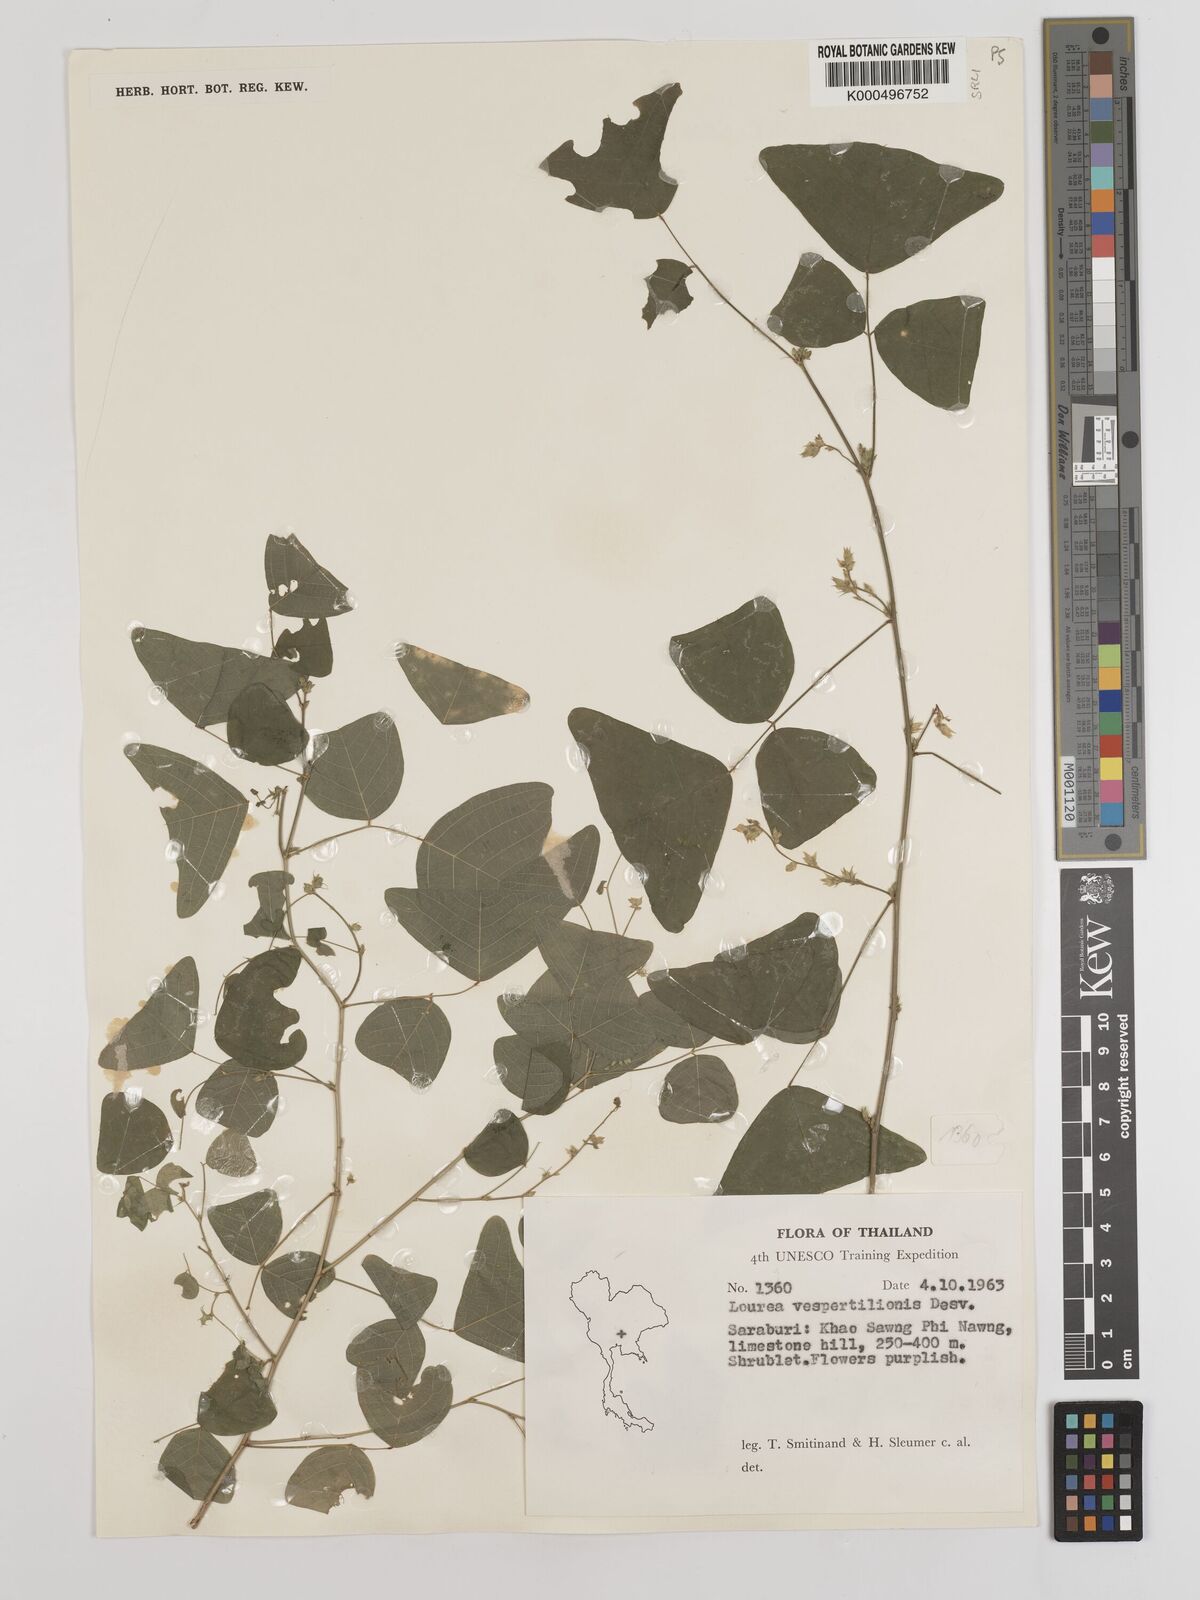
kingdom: Plantae
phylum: Tracheophyta
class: Magnoliopsida
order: Fabales
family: Fabaceae
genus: Christia
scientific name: Christia vespertilionis
